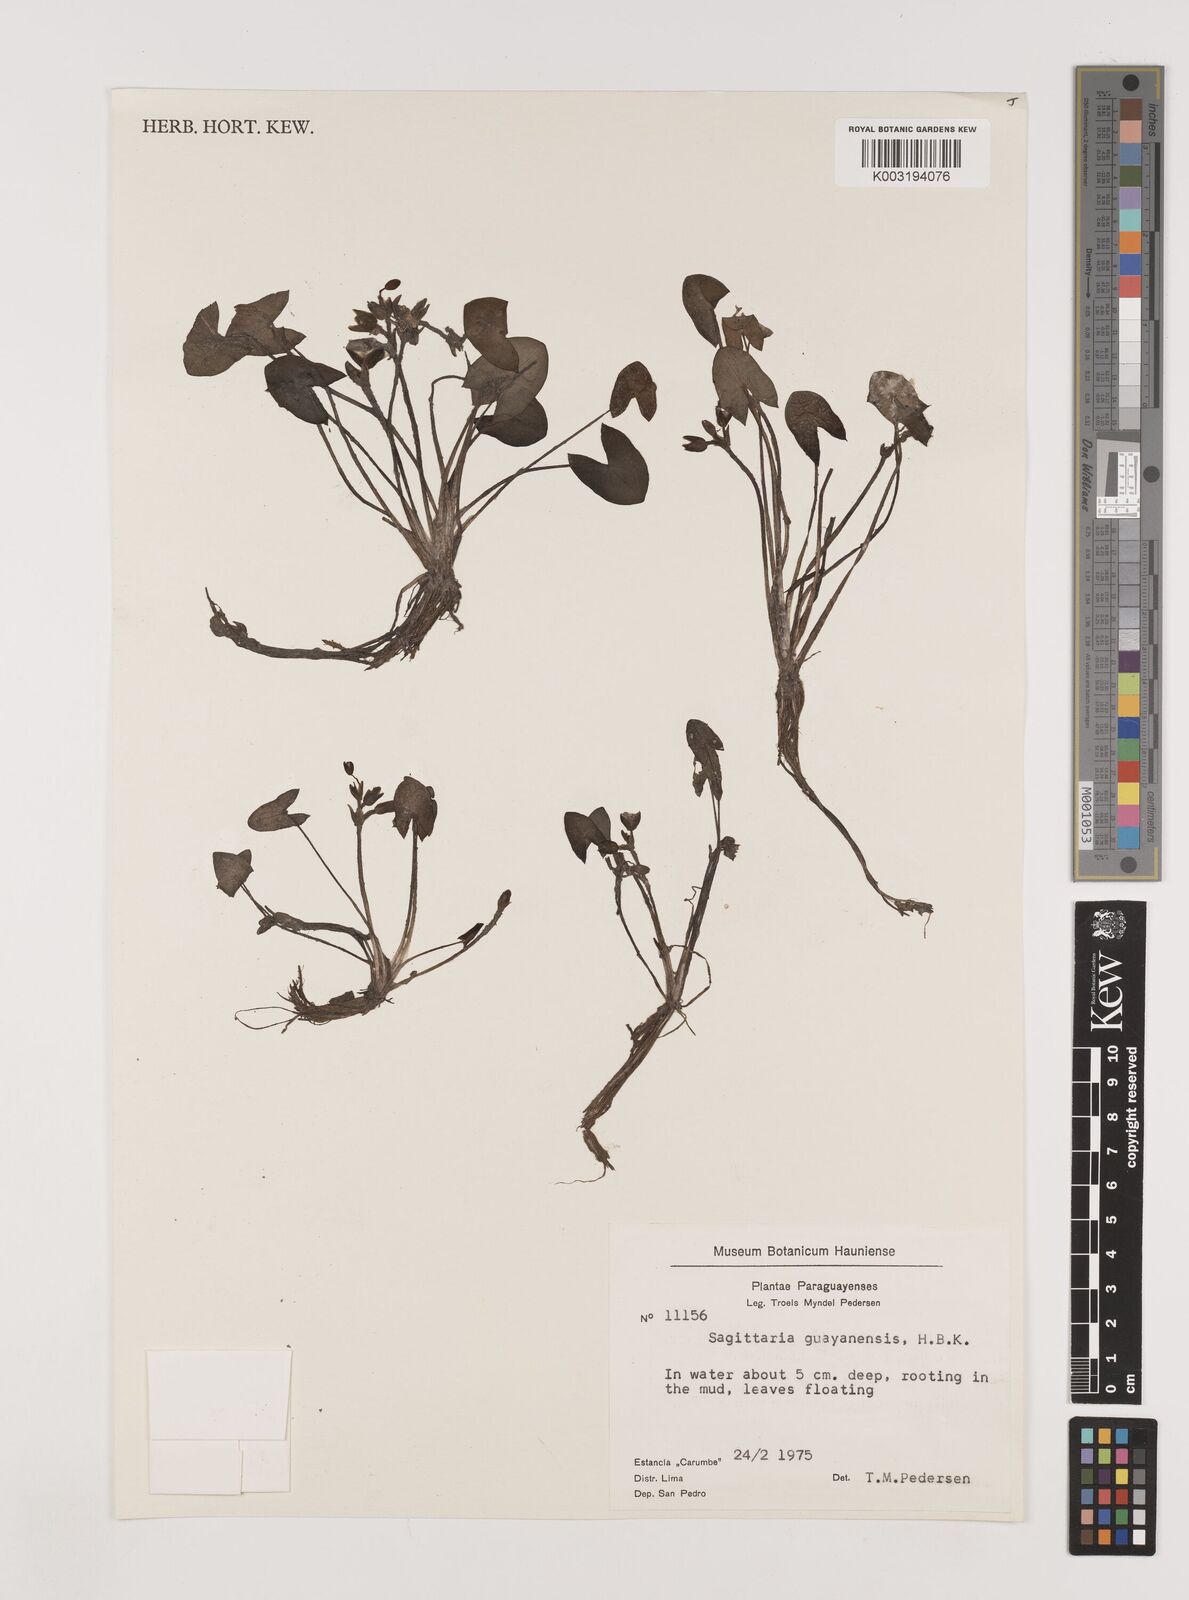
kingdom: Plantae
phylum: Tracheophyta
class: Liliopsida
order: Alismatales
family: Alismataceae
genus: Sagittaria
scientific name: Sagittaria guayanensis
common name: Guyanese arrowhead
